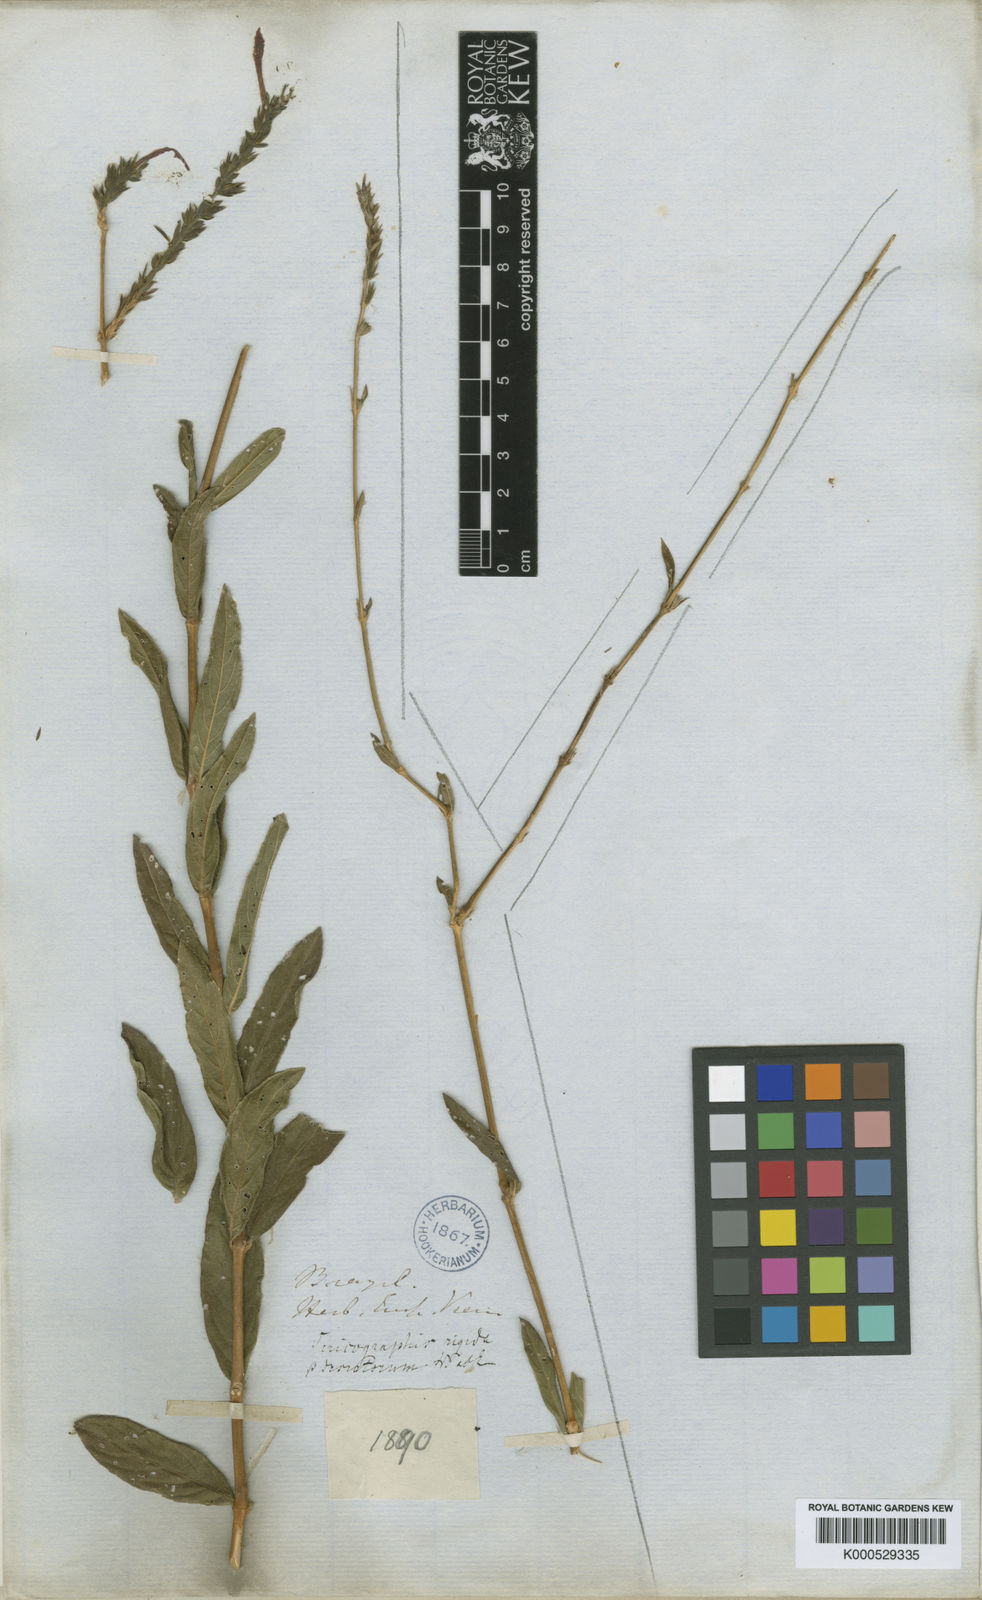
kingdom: Plantae
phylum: Tracheophyta
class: Magnoliopsida
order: Lamiales
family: Acanthaceae
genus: Dianthera
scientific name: Dianthera rigida
